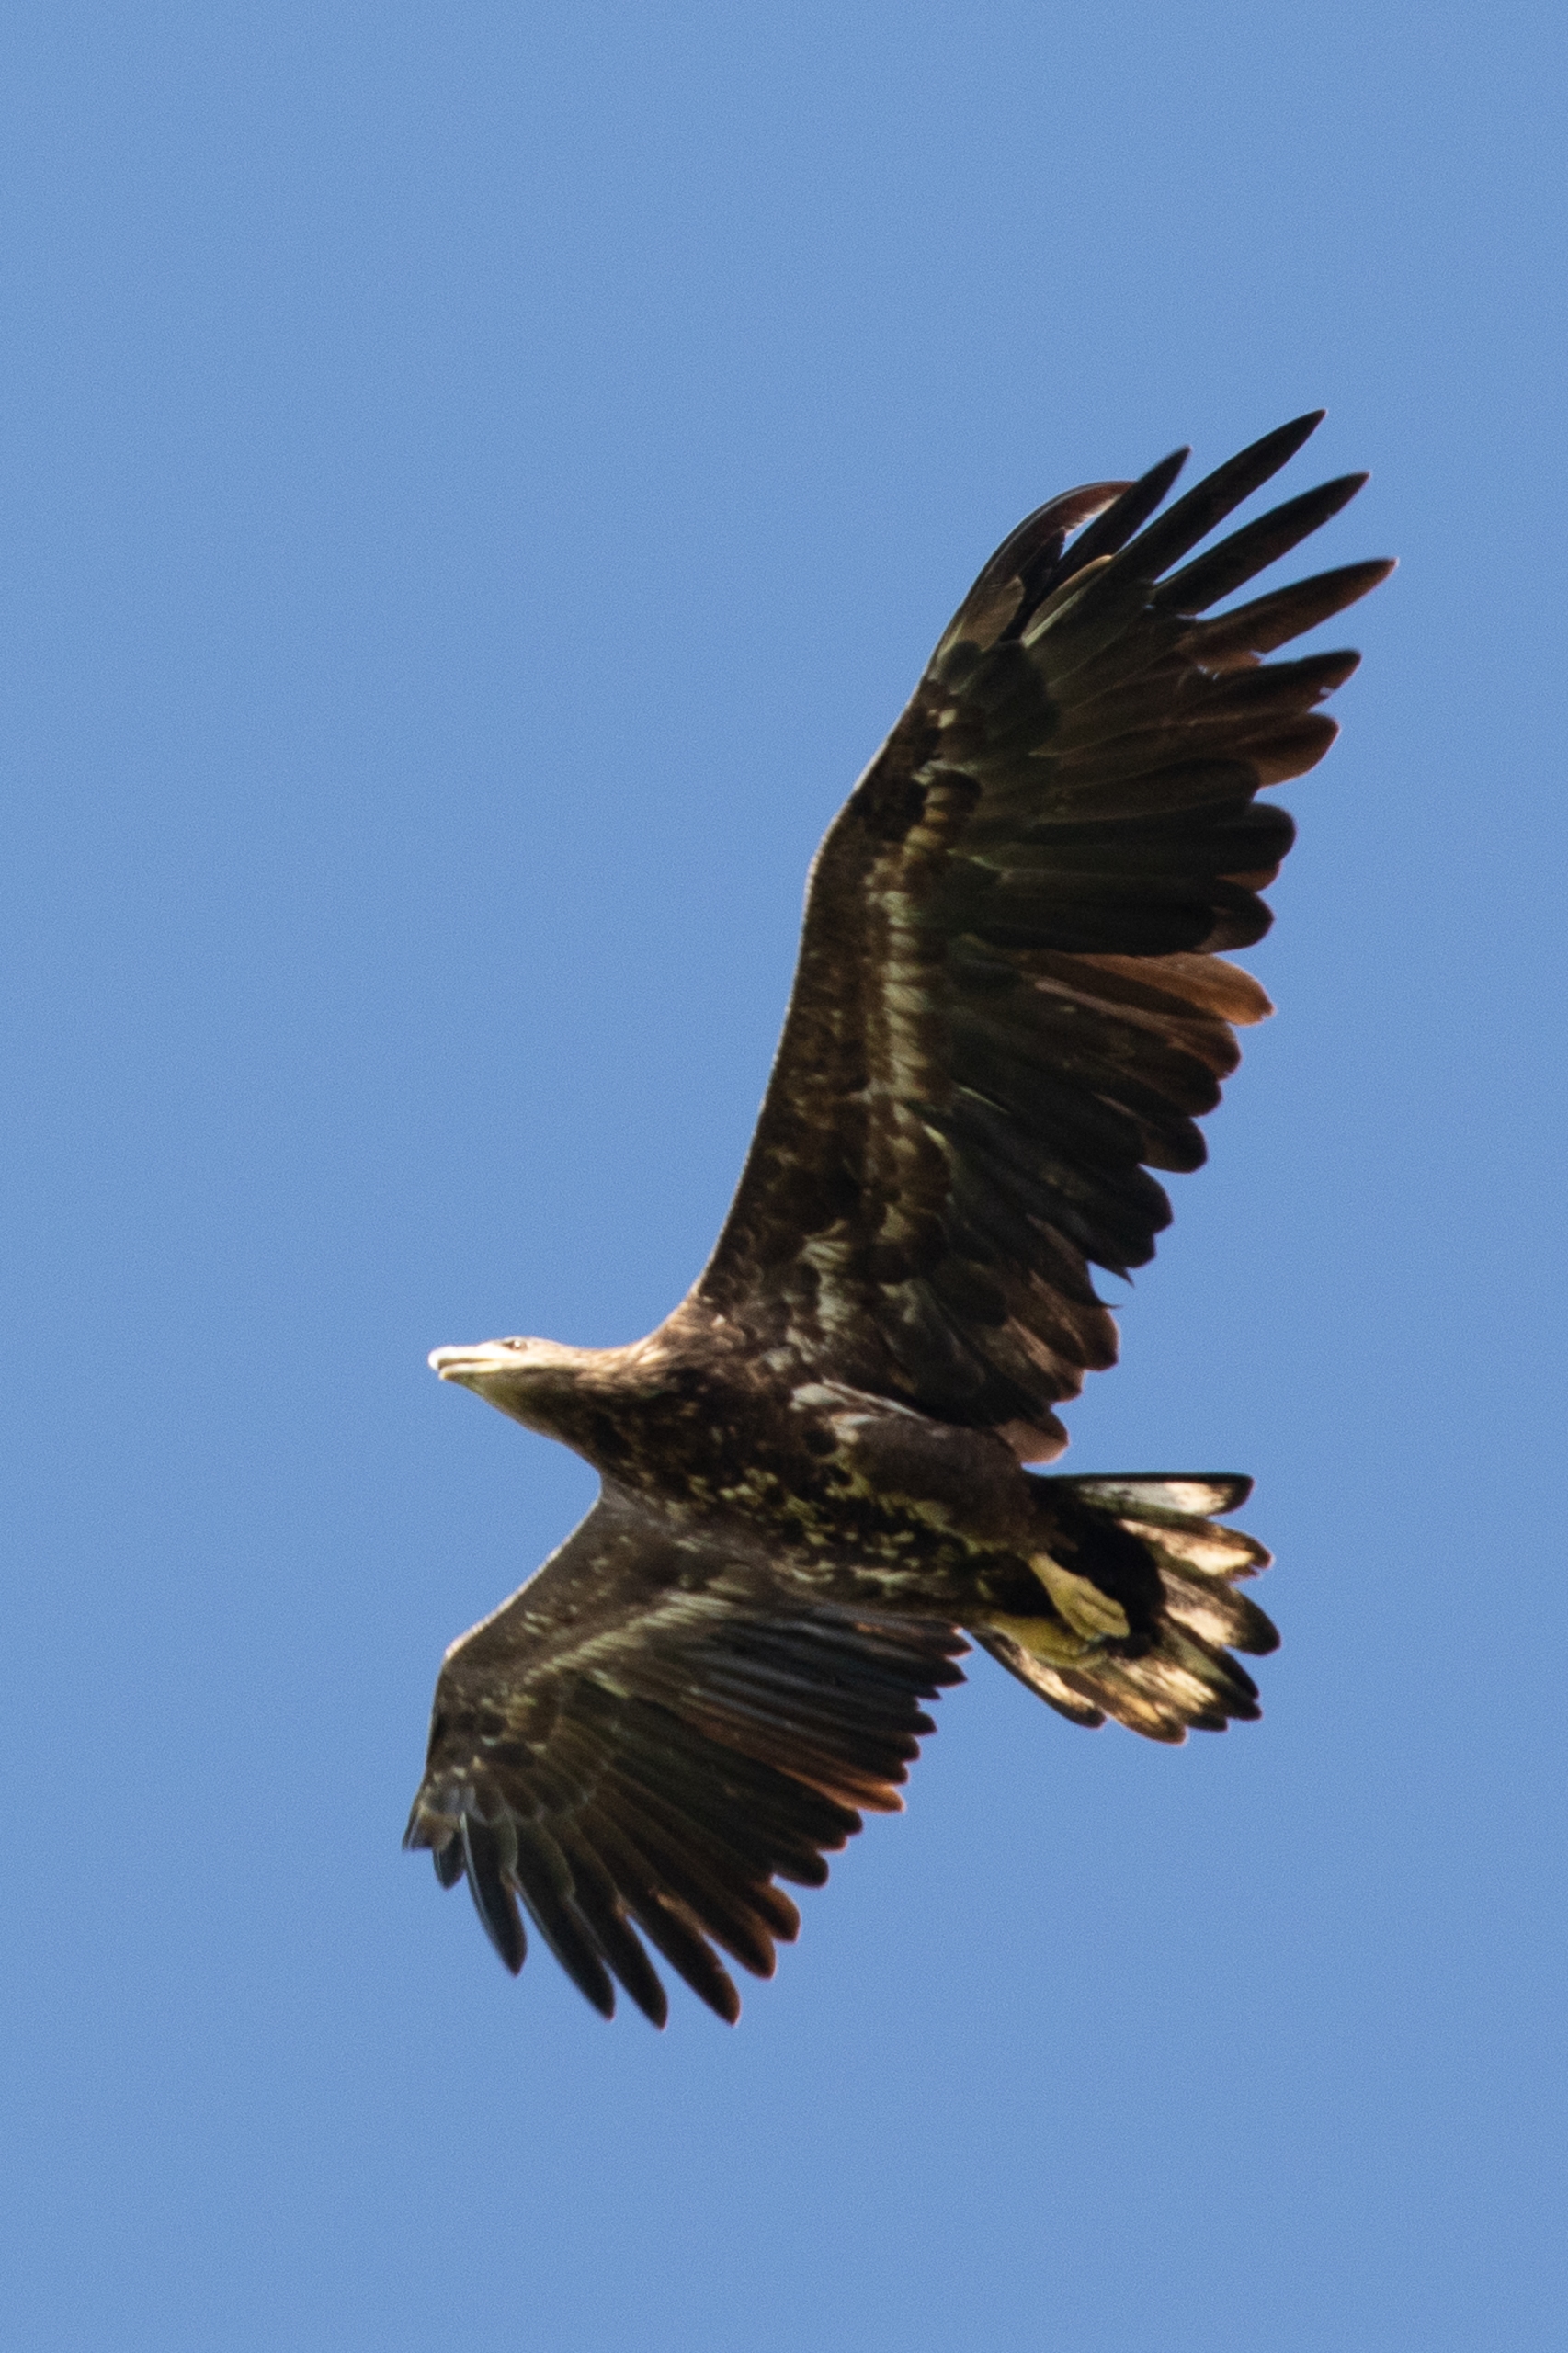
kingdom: Animalia
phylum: Chordata
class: Aves
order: Accipitriformes
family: Accipitridae
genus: Haliaeetus
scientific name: Haliaeetus albicilla
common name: Havørn
